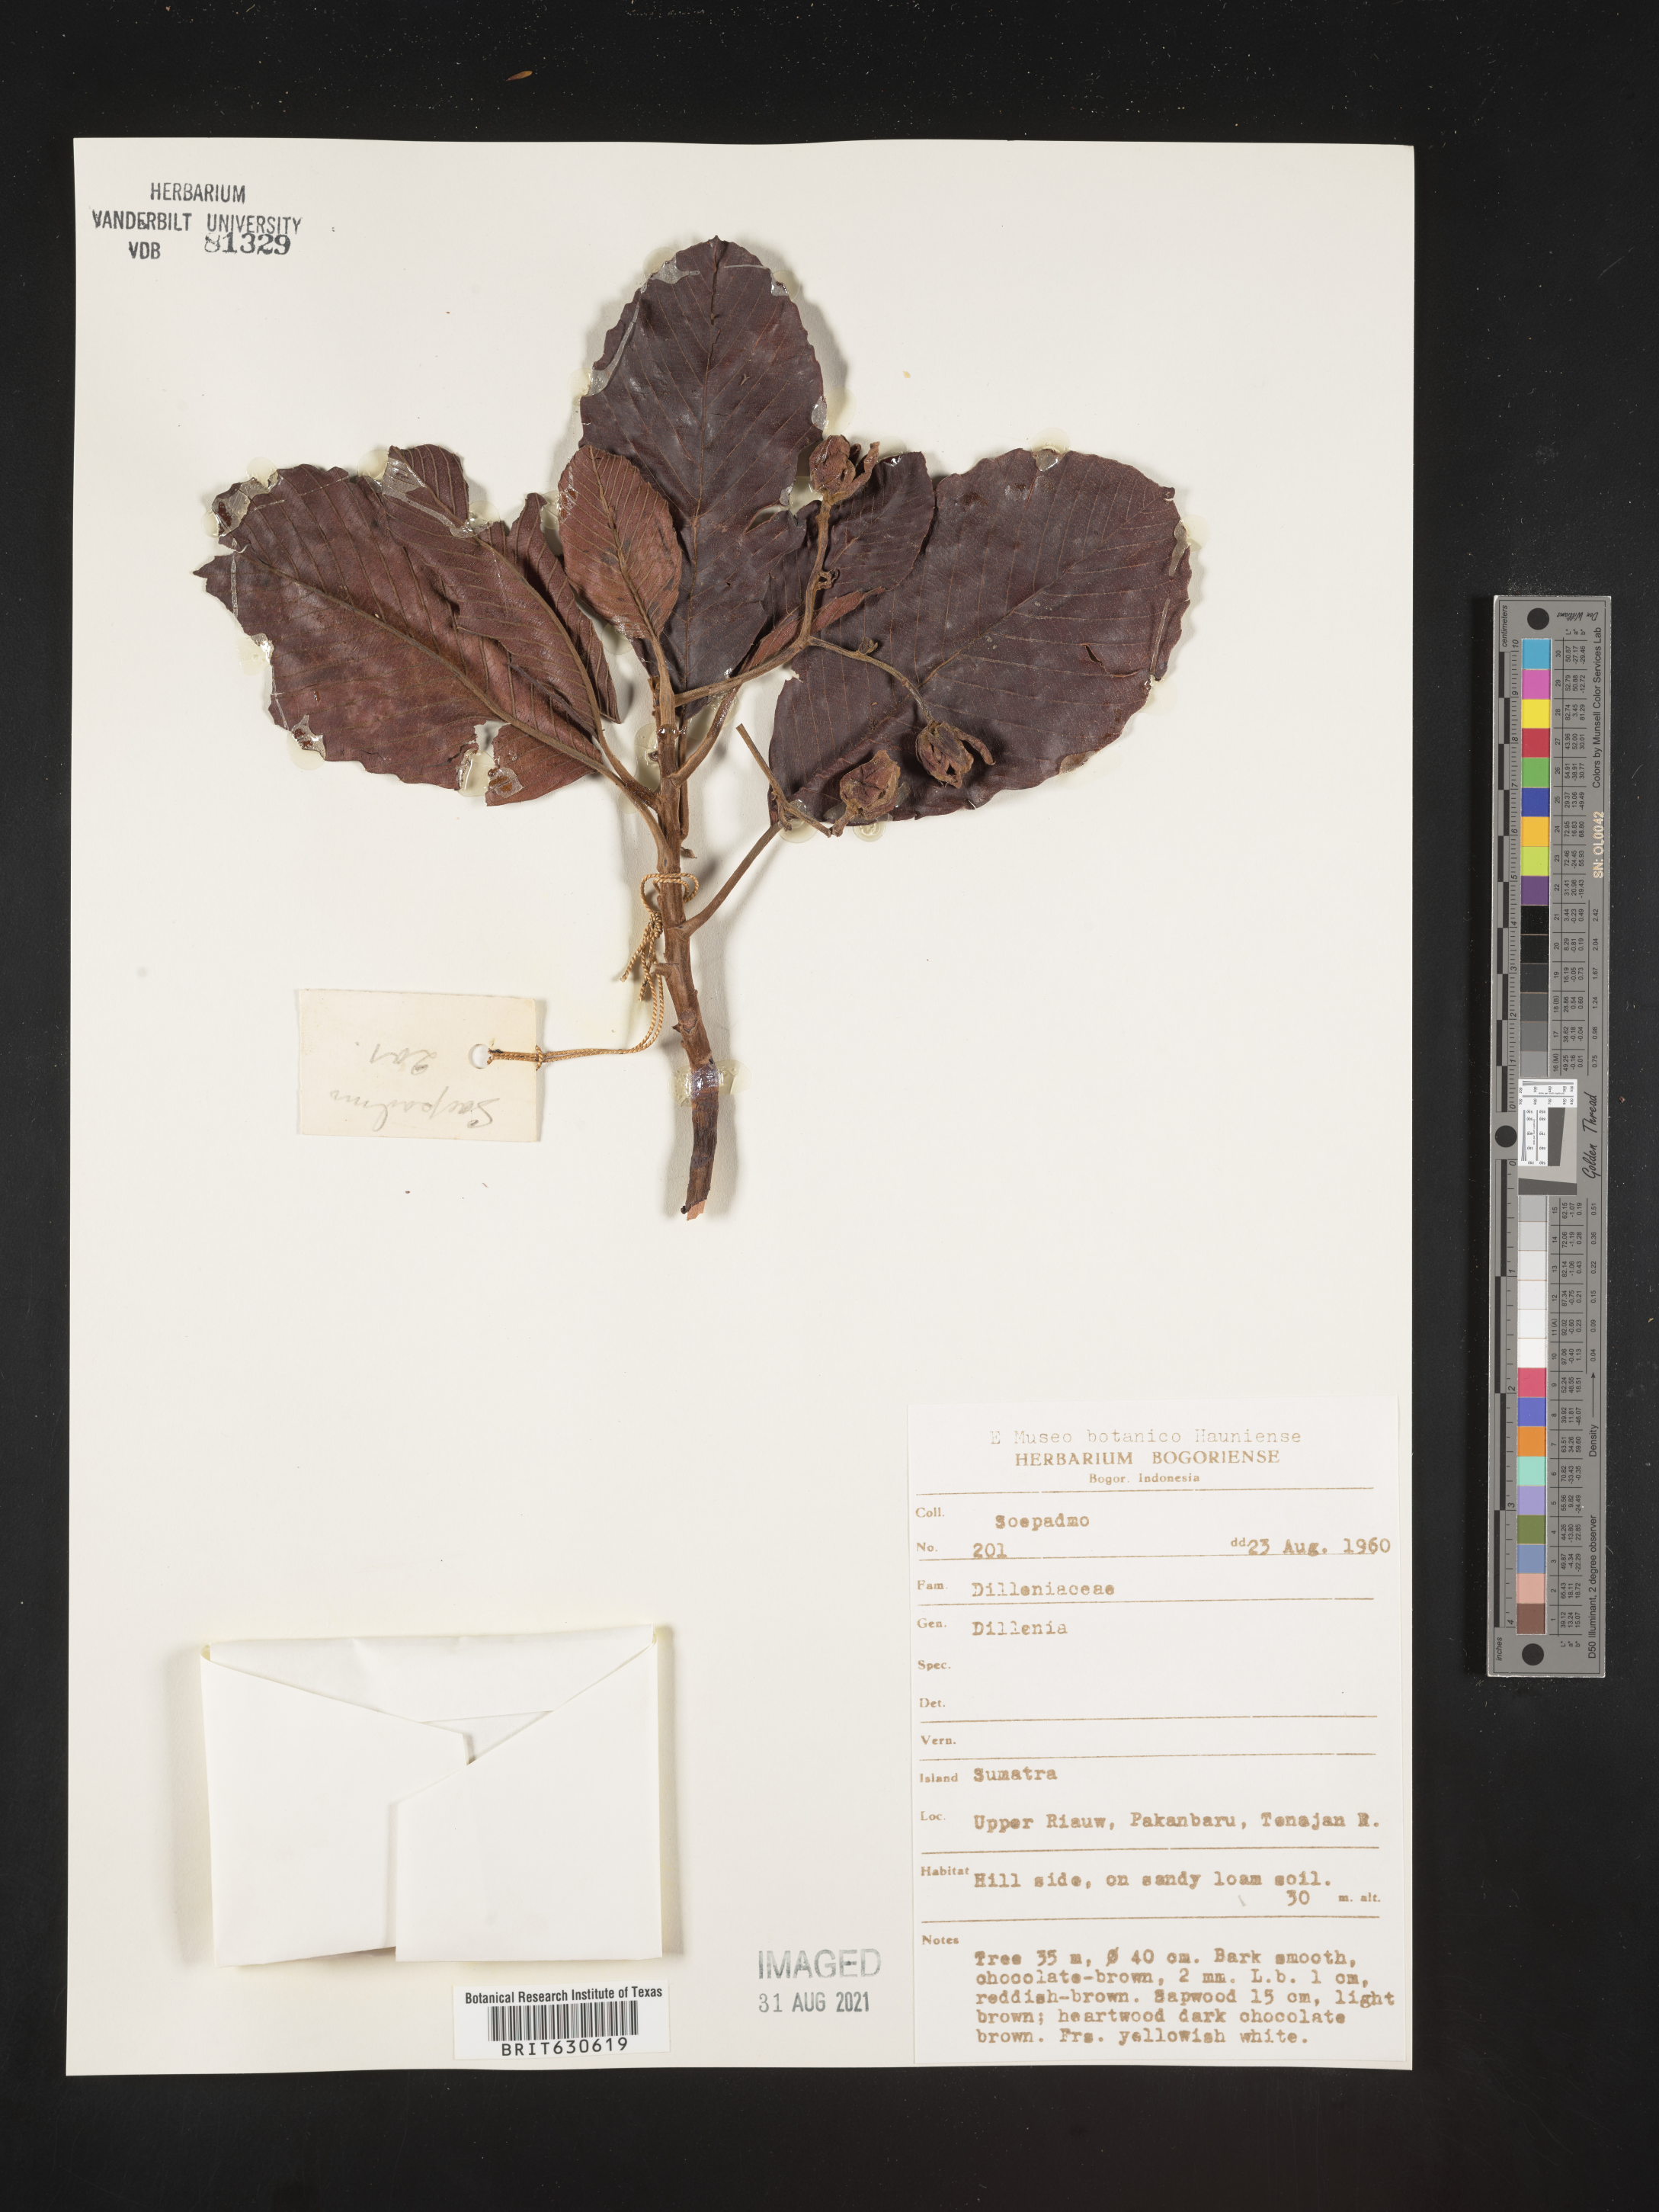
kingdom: Plantae
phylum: Tracheophyta
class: Magnoliopsida
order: Dilleniales
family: Dilleniaceae
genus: Dillenia
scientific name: Dillenia
